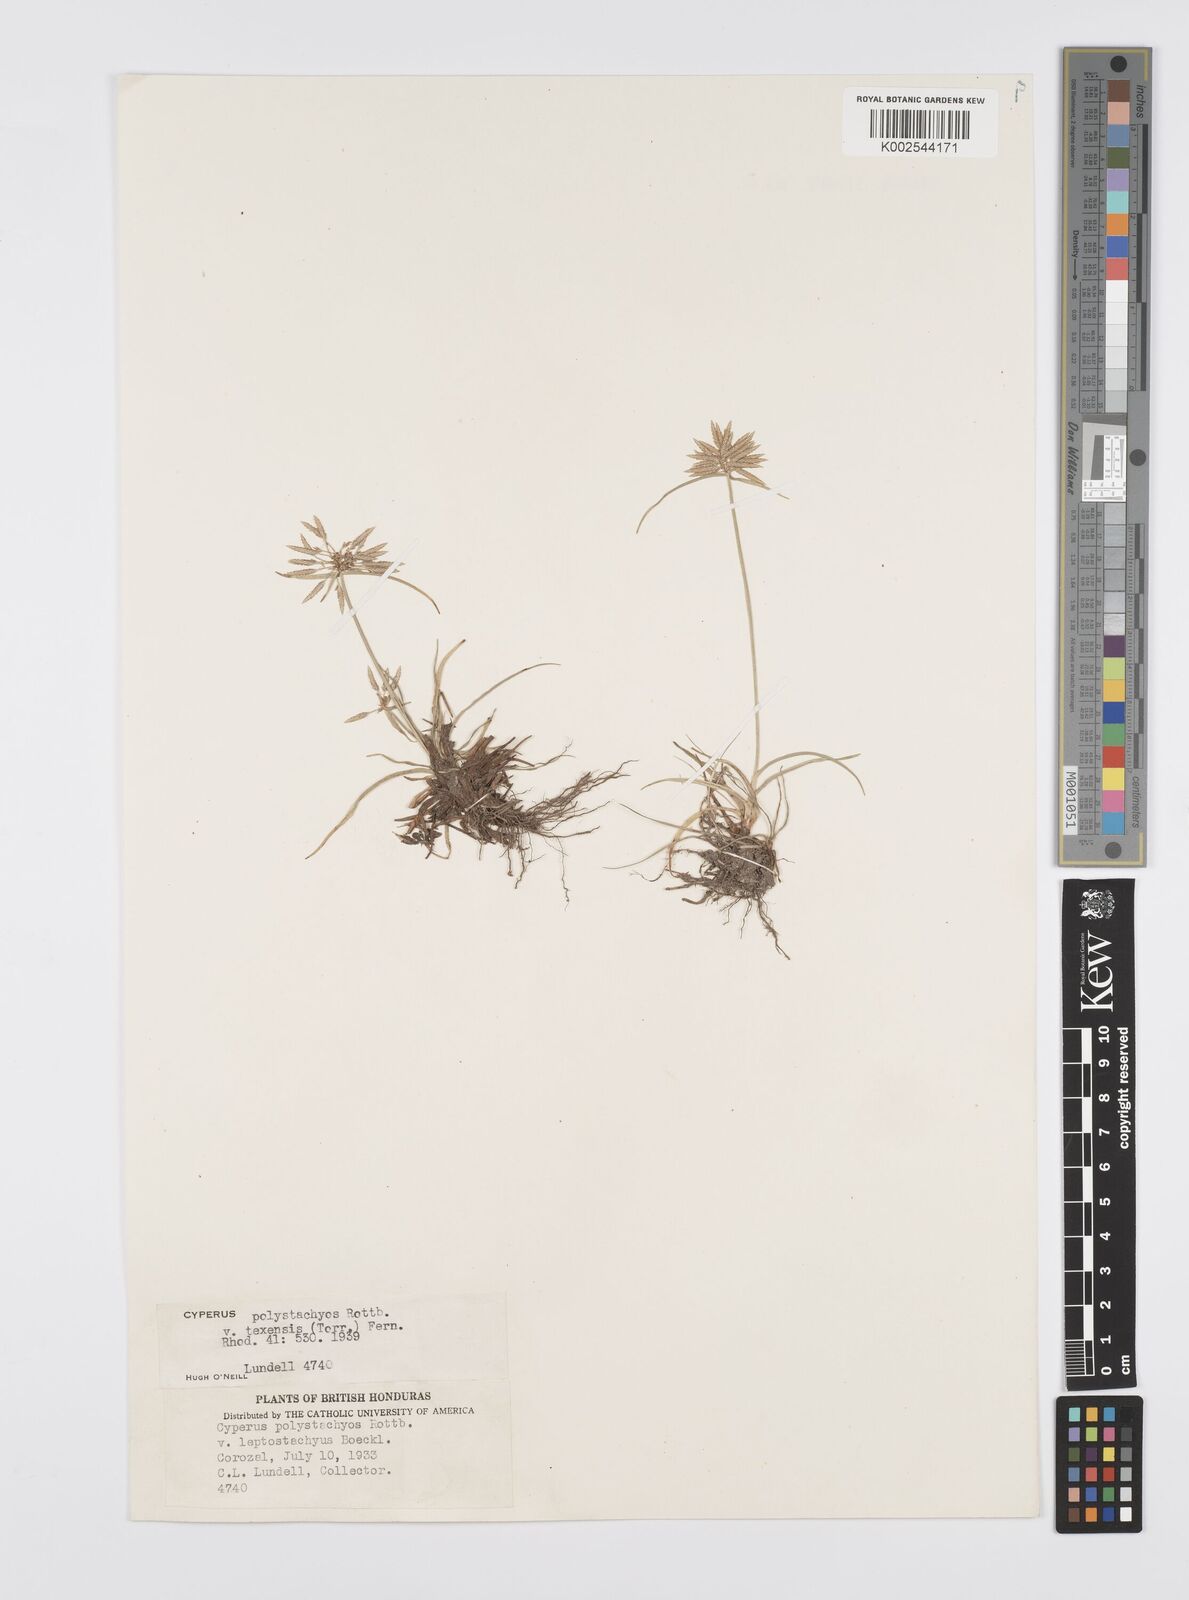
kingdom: Plantae
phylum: Tracheophyta
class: Liliopsida
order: Poales
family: Cyperaceae
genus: Cyperus
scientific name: Cyperus polystachyos
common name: Bunchy flat sedge
